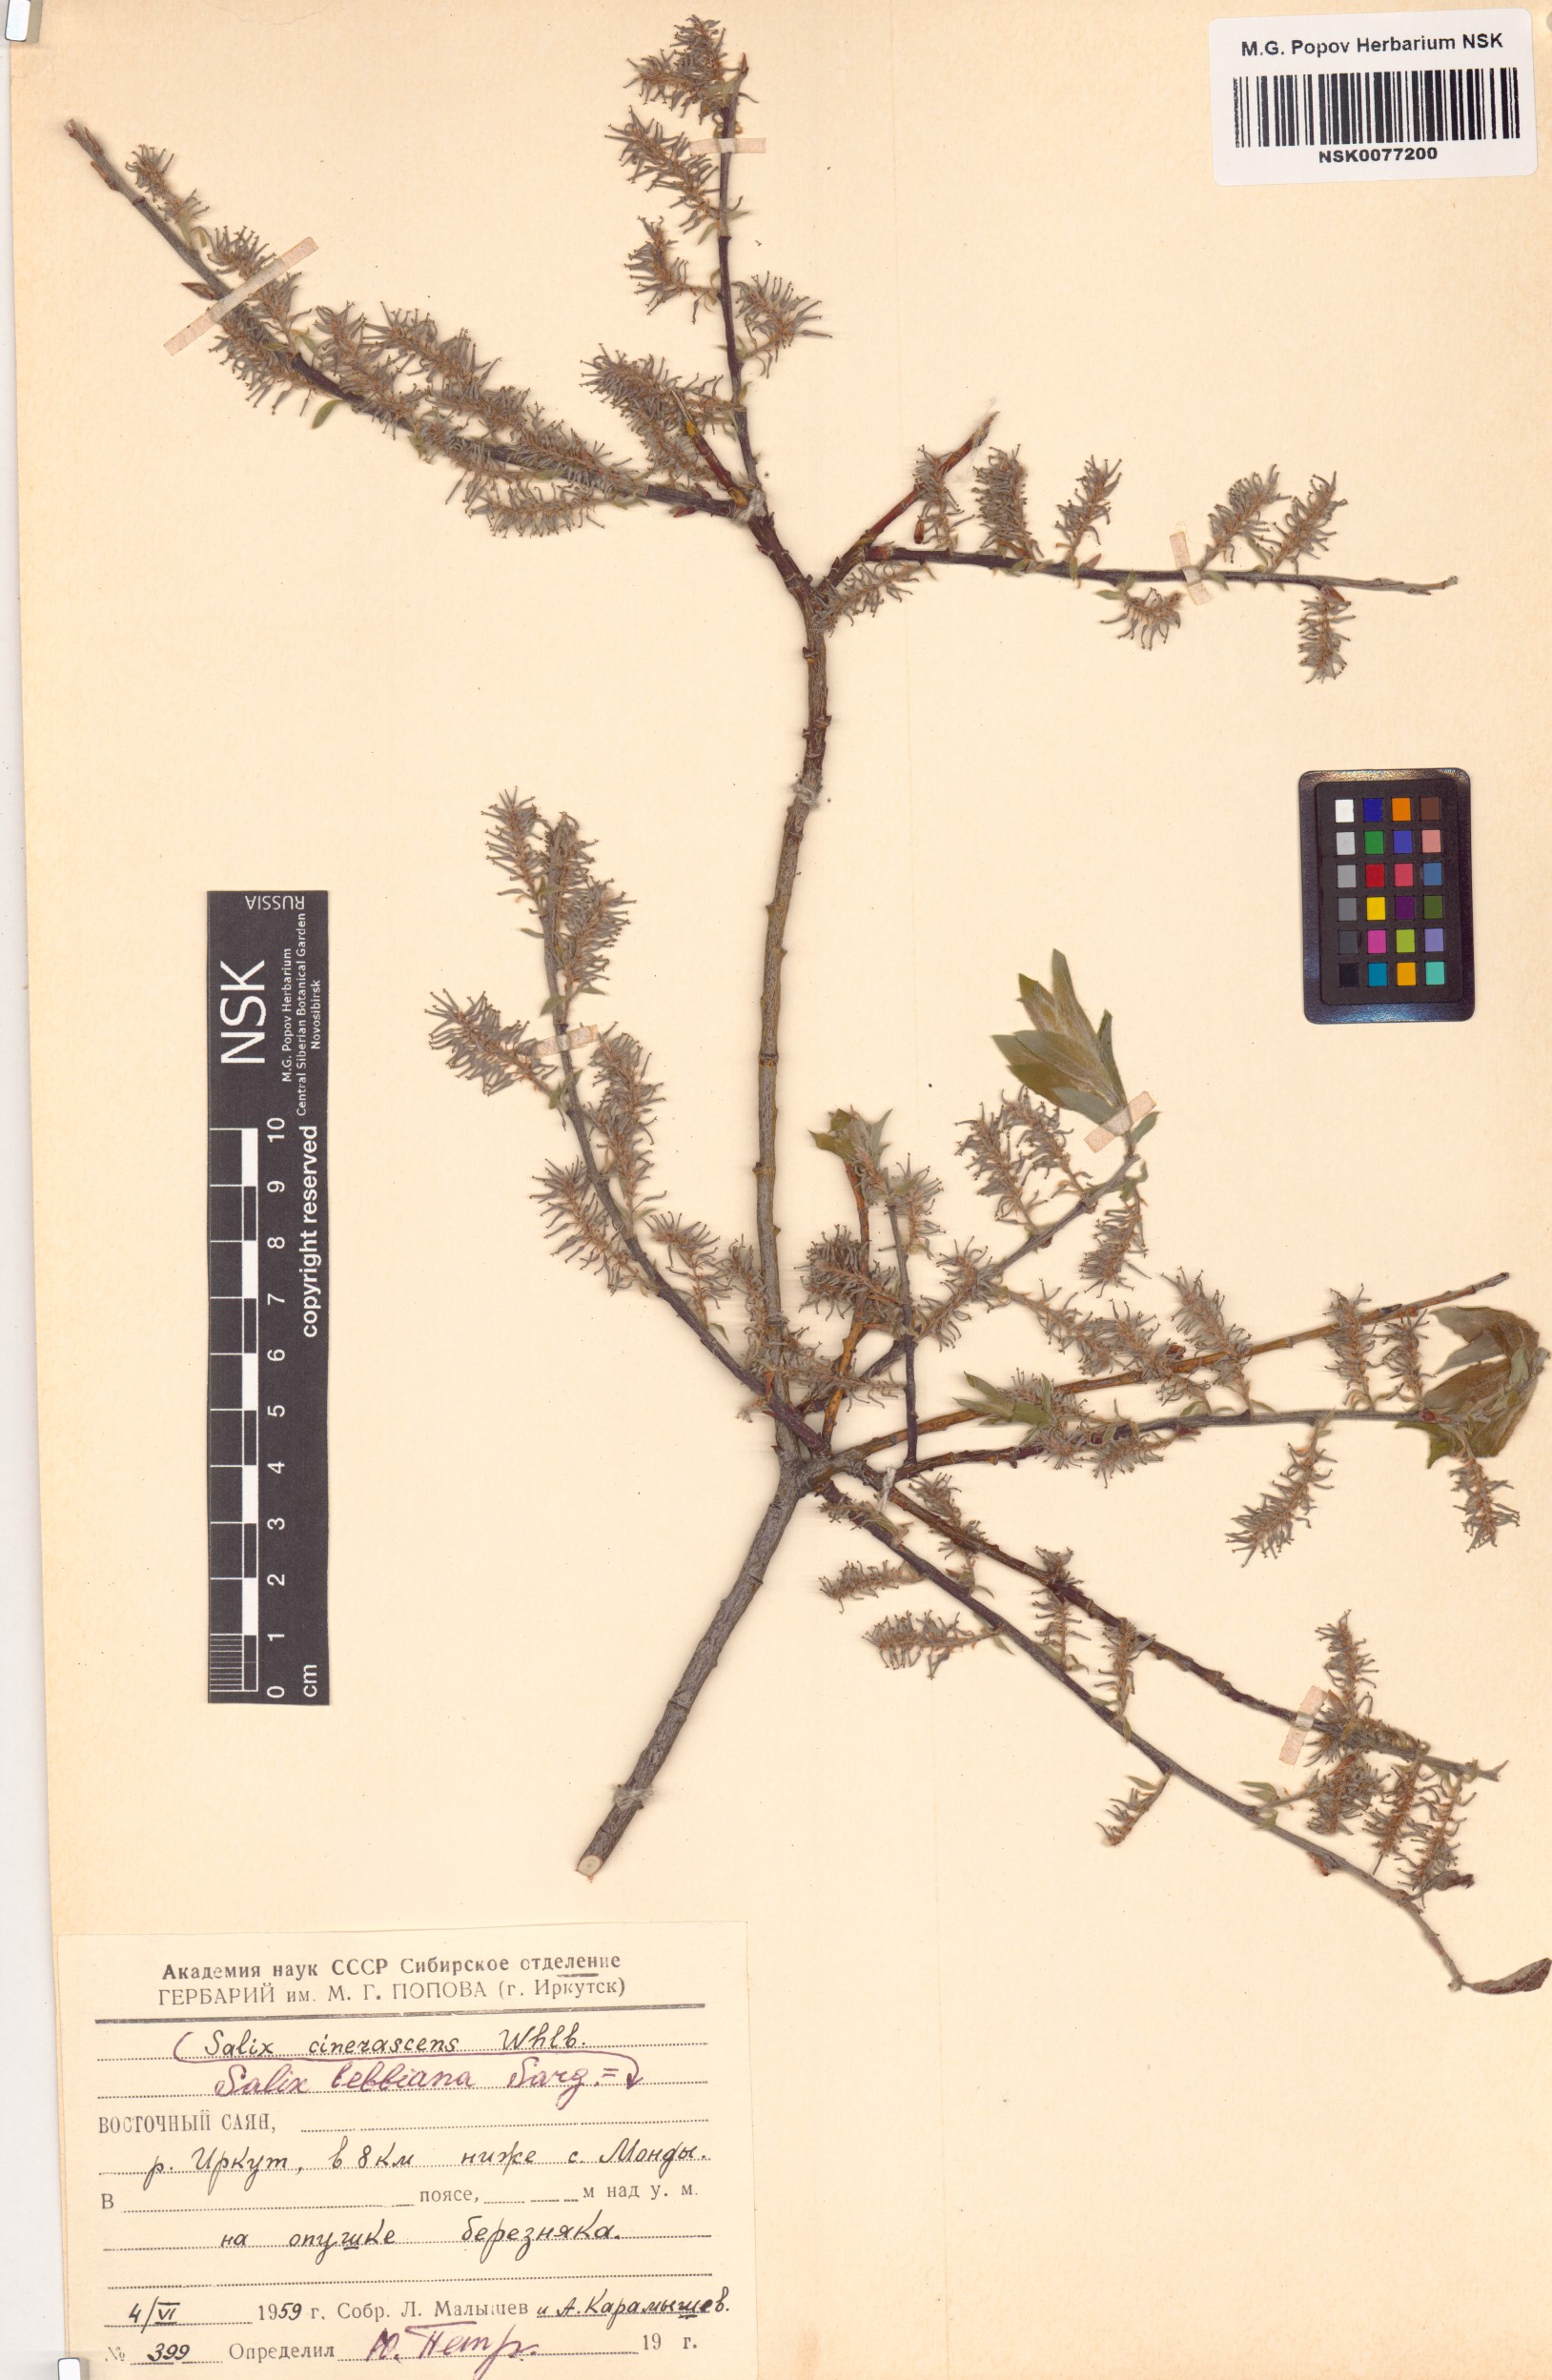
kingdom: Plantae
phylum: Tracheophyta
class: Magnoliopsida
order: Malpighiales
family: Salicaceae
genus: Salix
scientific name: Salix bebbiana
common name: Bebb's willow
